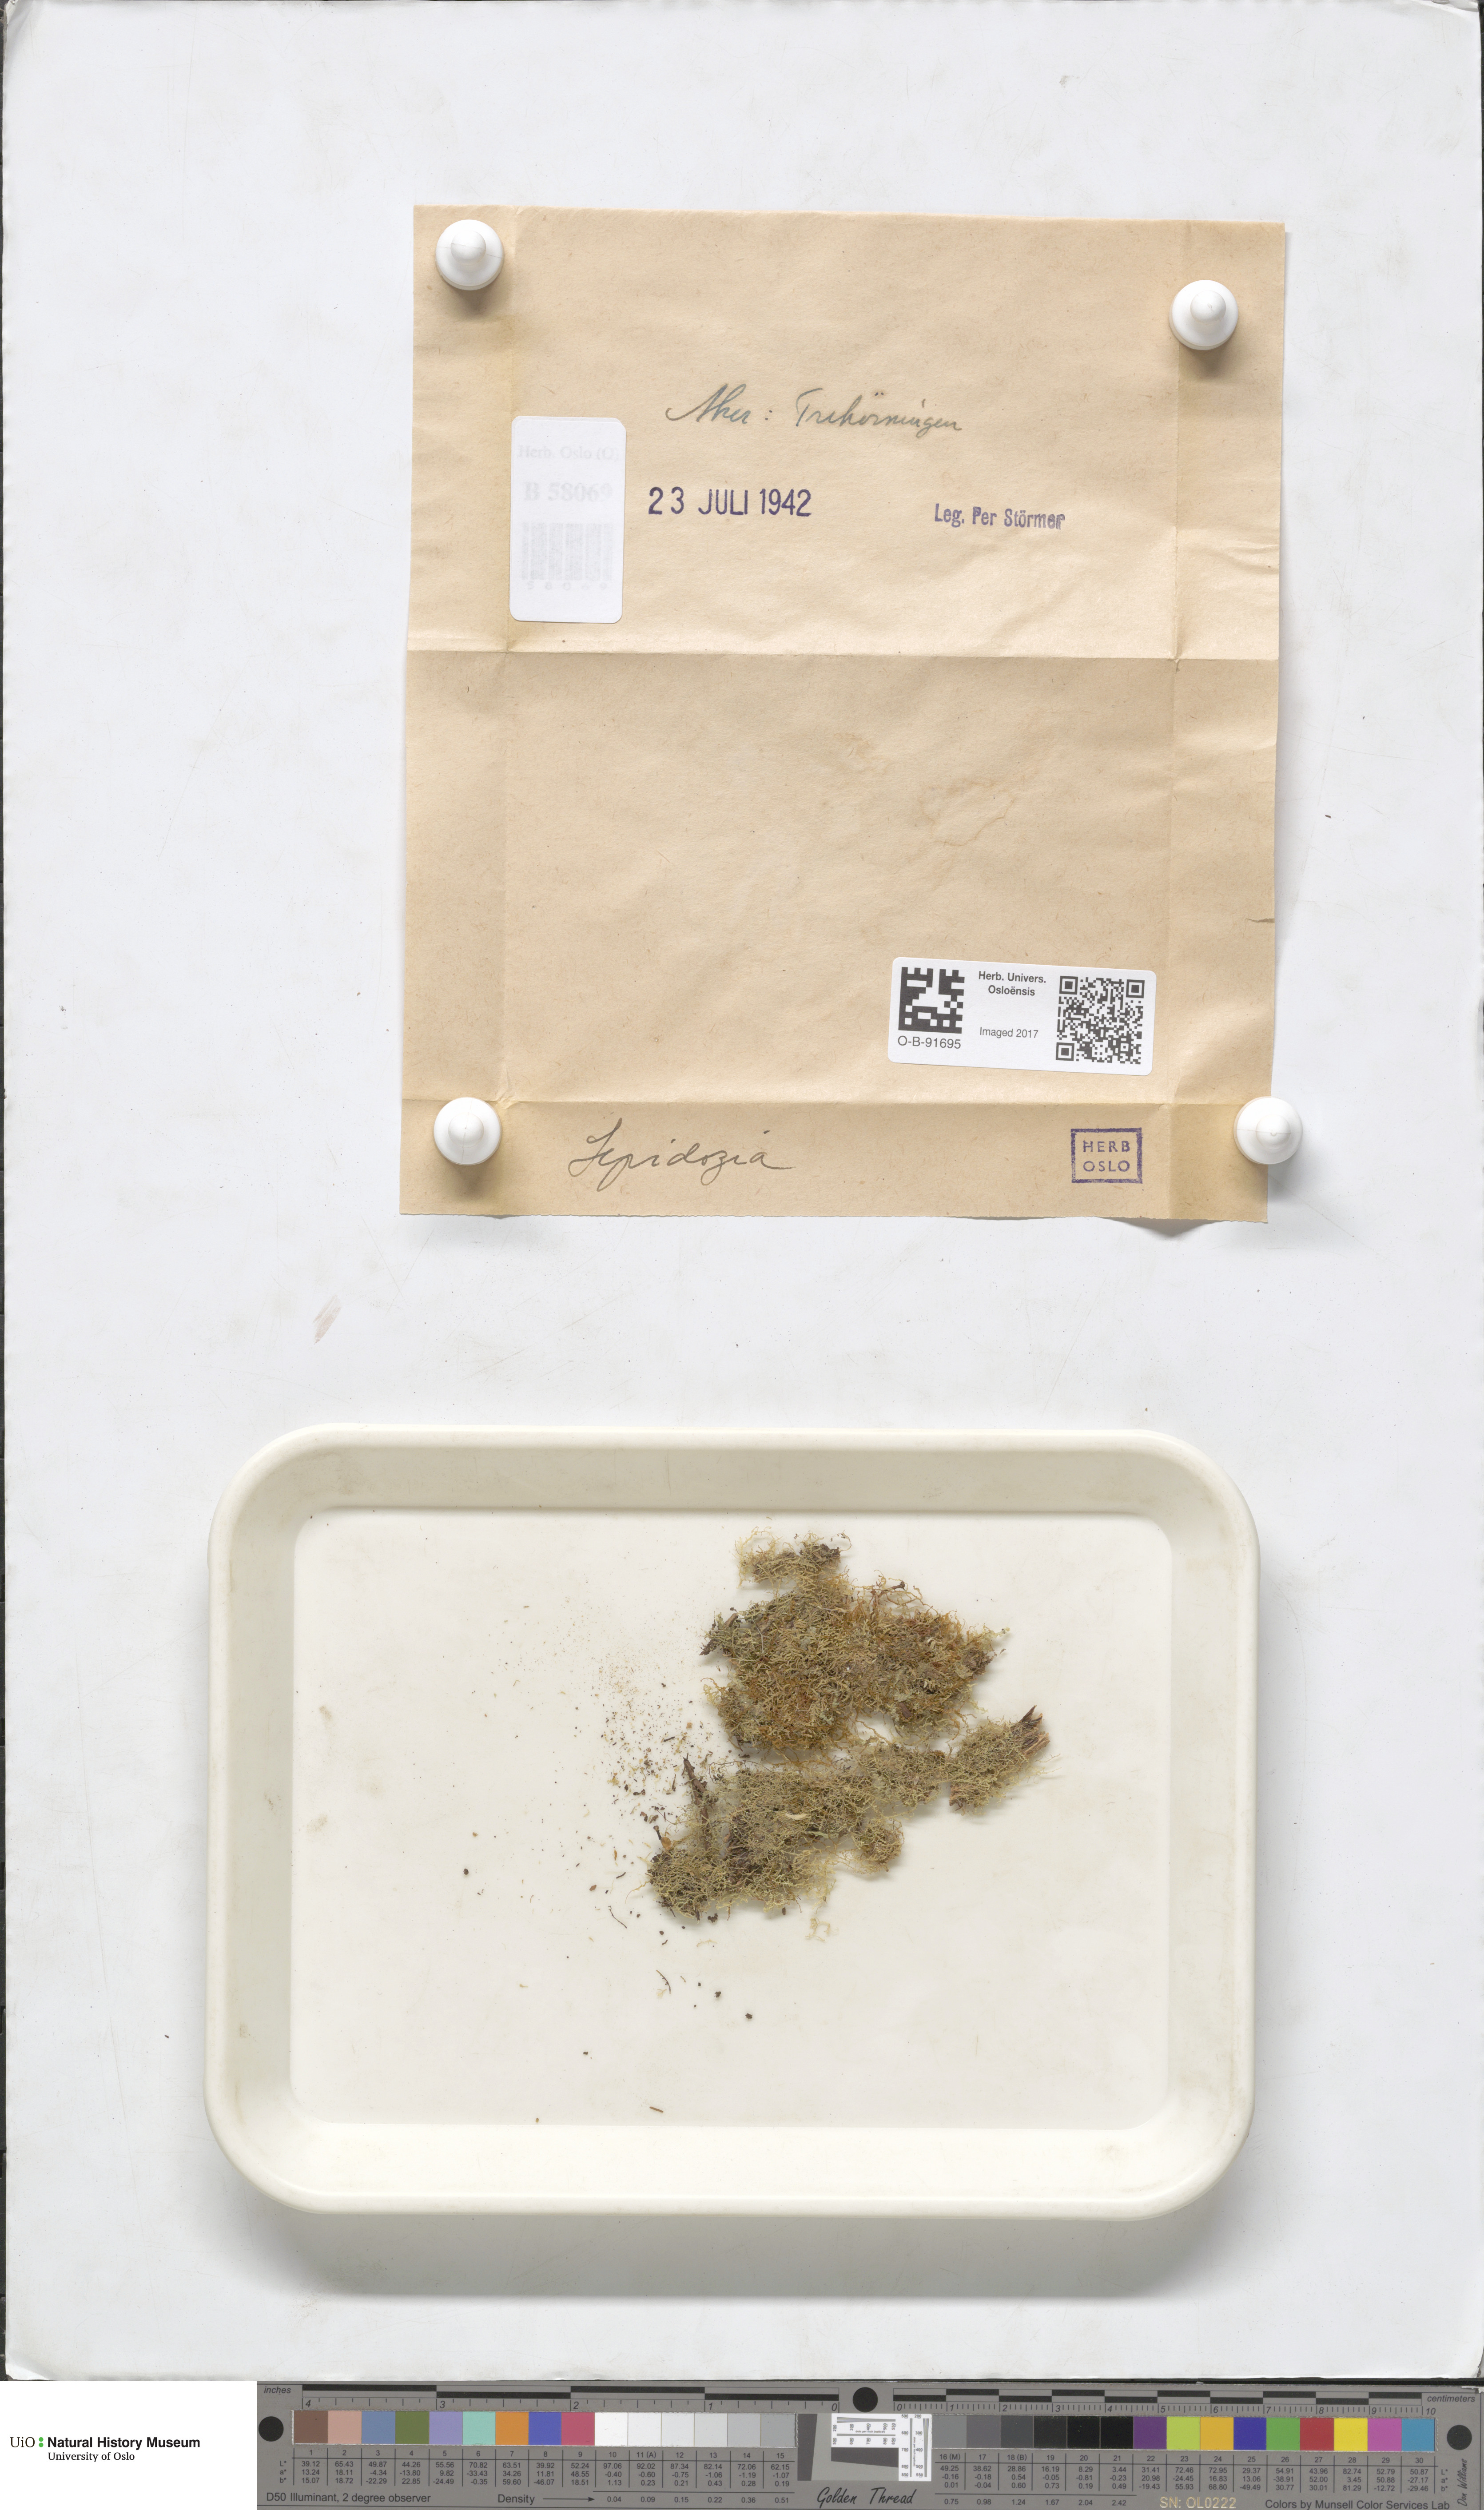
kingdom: Plantae
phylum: Marchantiophyta
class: Jungermanniopsida
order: Jungermanniales
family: Lepidoziaceae
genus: Lepidozia
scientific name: Lepidozia
